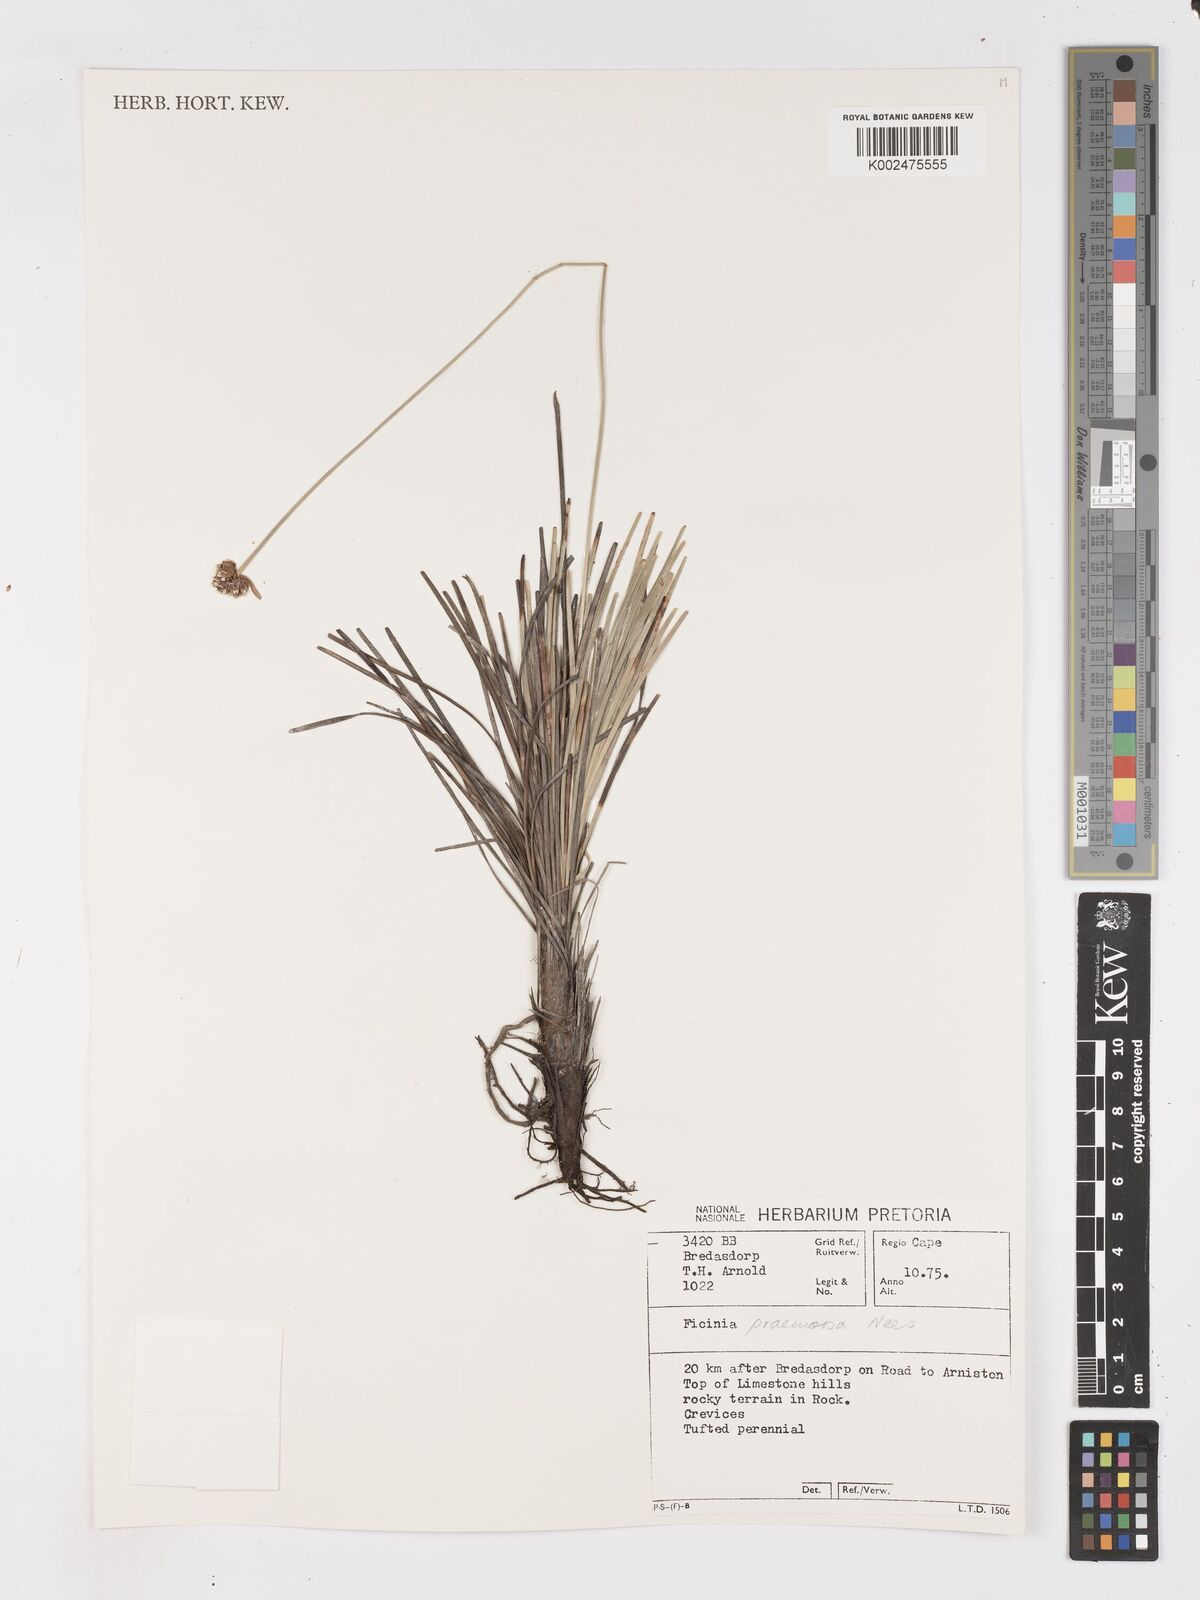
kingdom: Plantae
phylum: Tracheophyta
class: Liliopsida
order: Poales
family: Cyperaceae
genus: Ficinia
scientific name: Ficinia praemorsa
